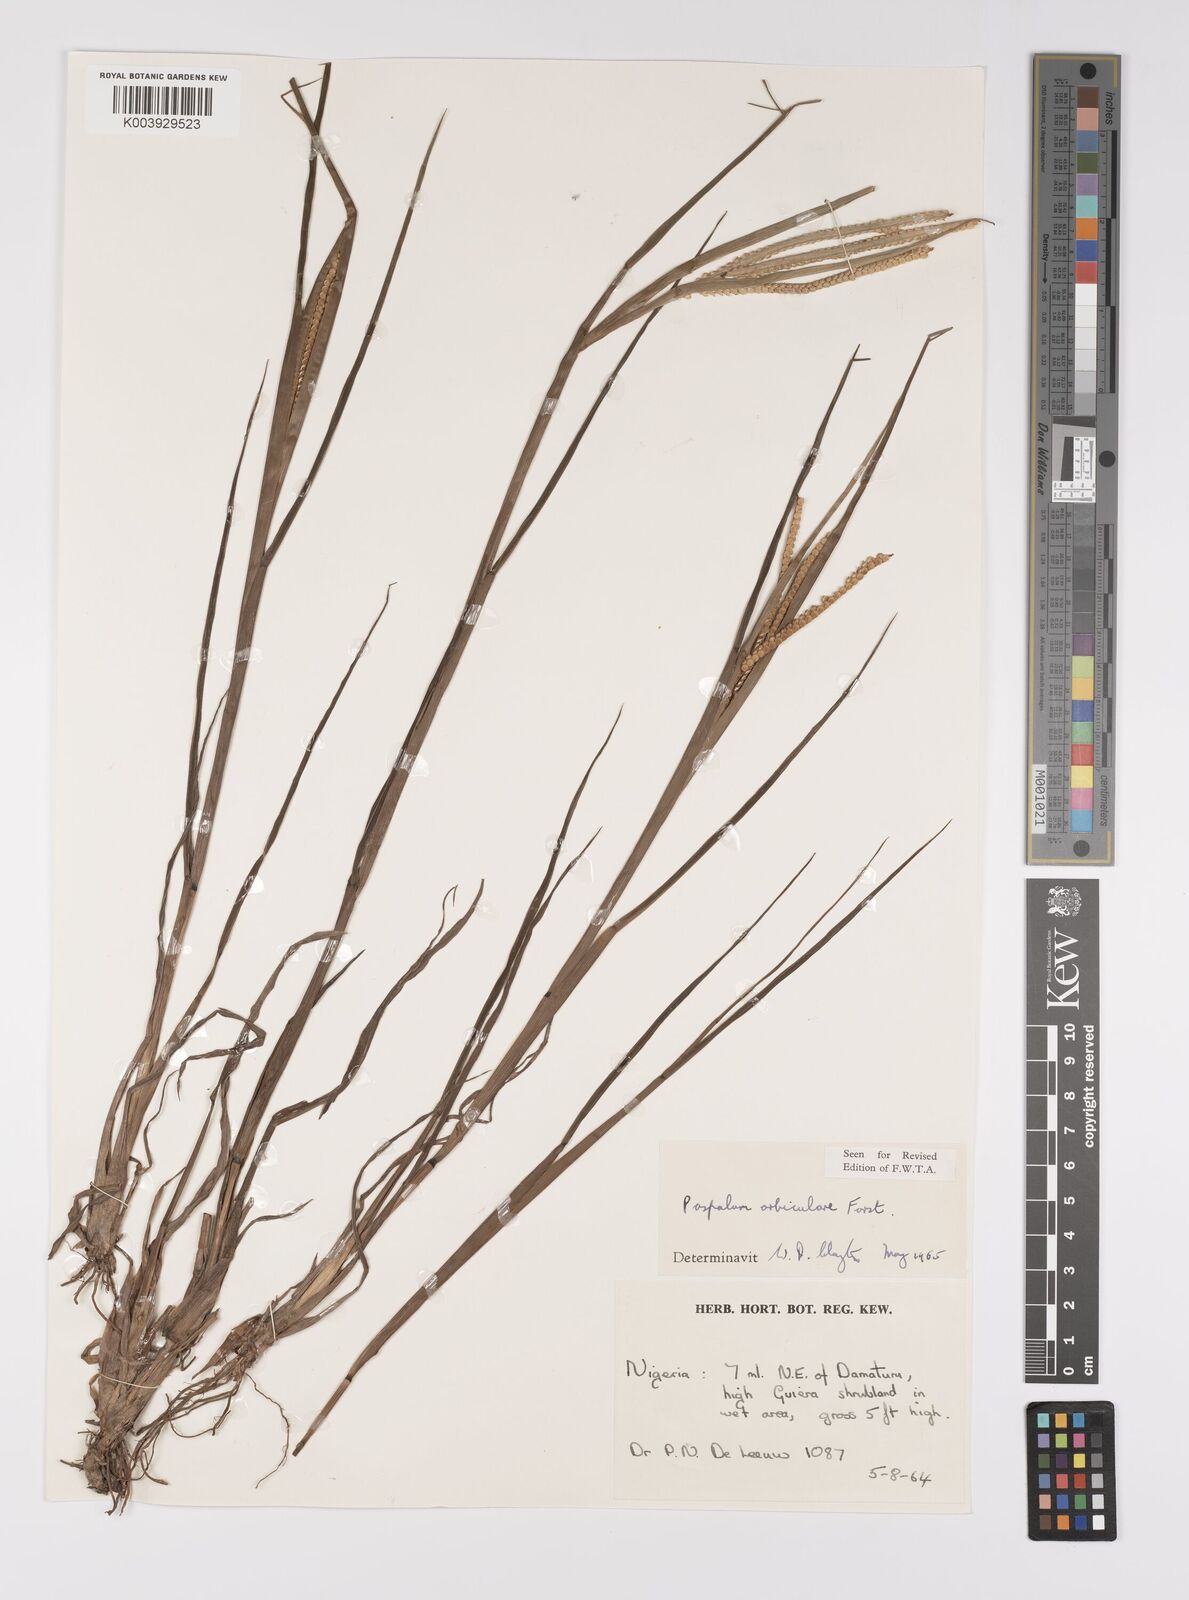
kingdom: Plantae
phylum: Tracheophyta
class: Liliopsida
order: Poales
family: Poaceae
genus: Paspalum
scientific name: Paspalum scrobiculatum
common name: Kodo millet
